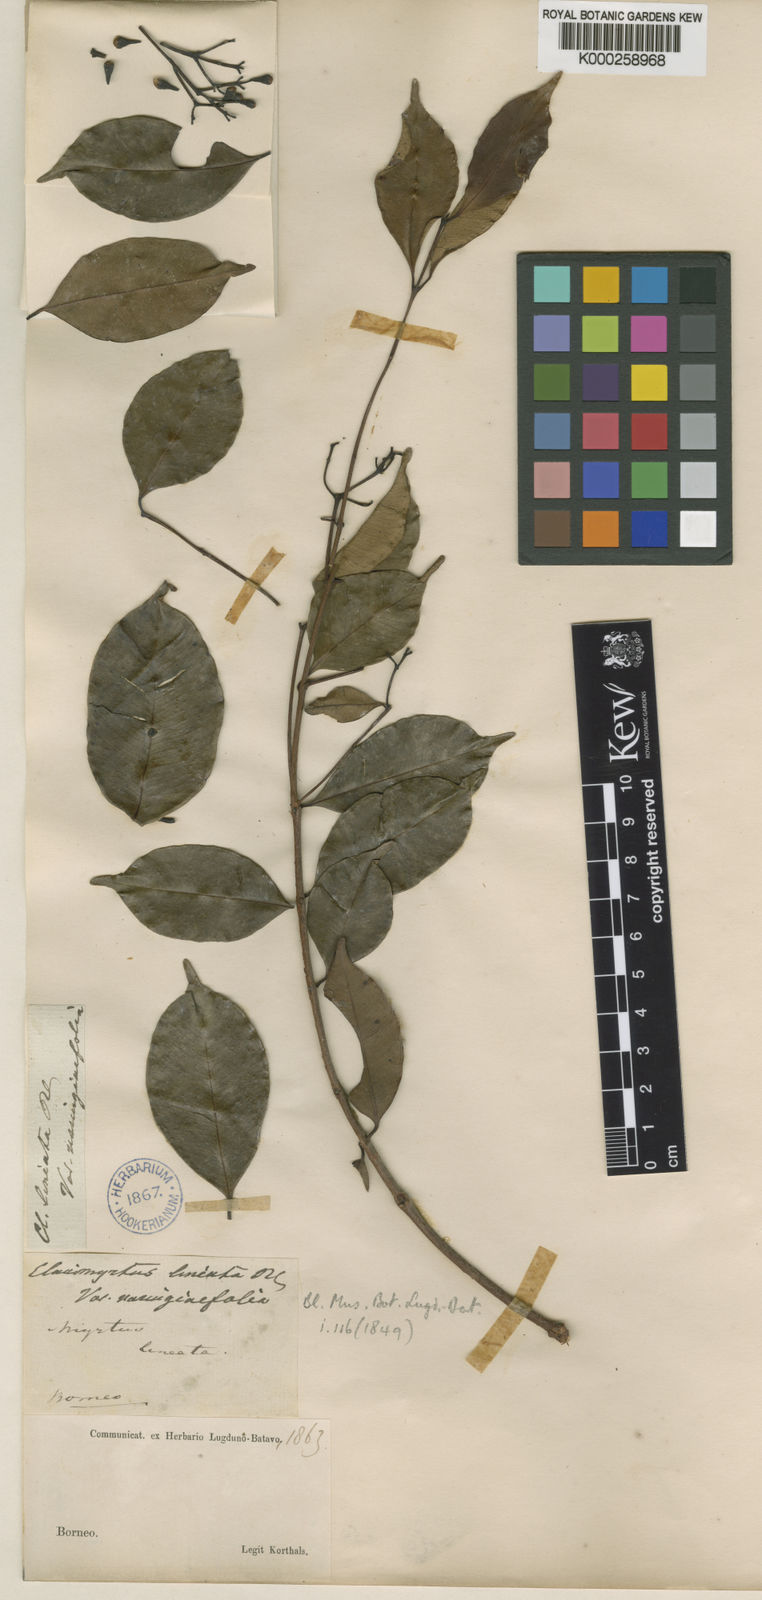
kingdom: Plantae
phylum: Tracheophyta
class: Magnoliopsida
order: Myrtales
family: Myrtaceae
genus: Syzygium
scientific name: Syzygium lineatum
